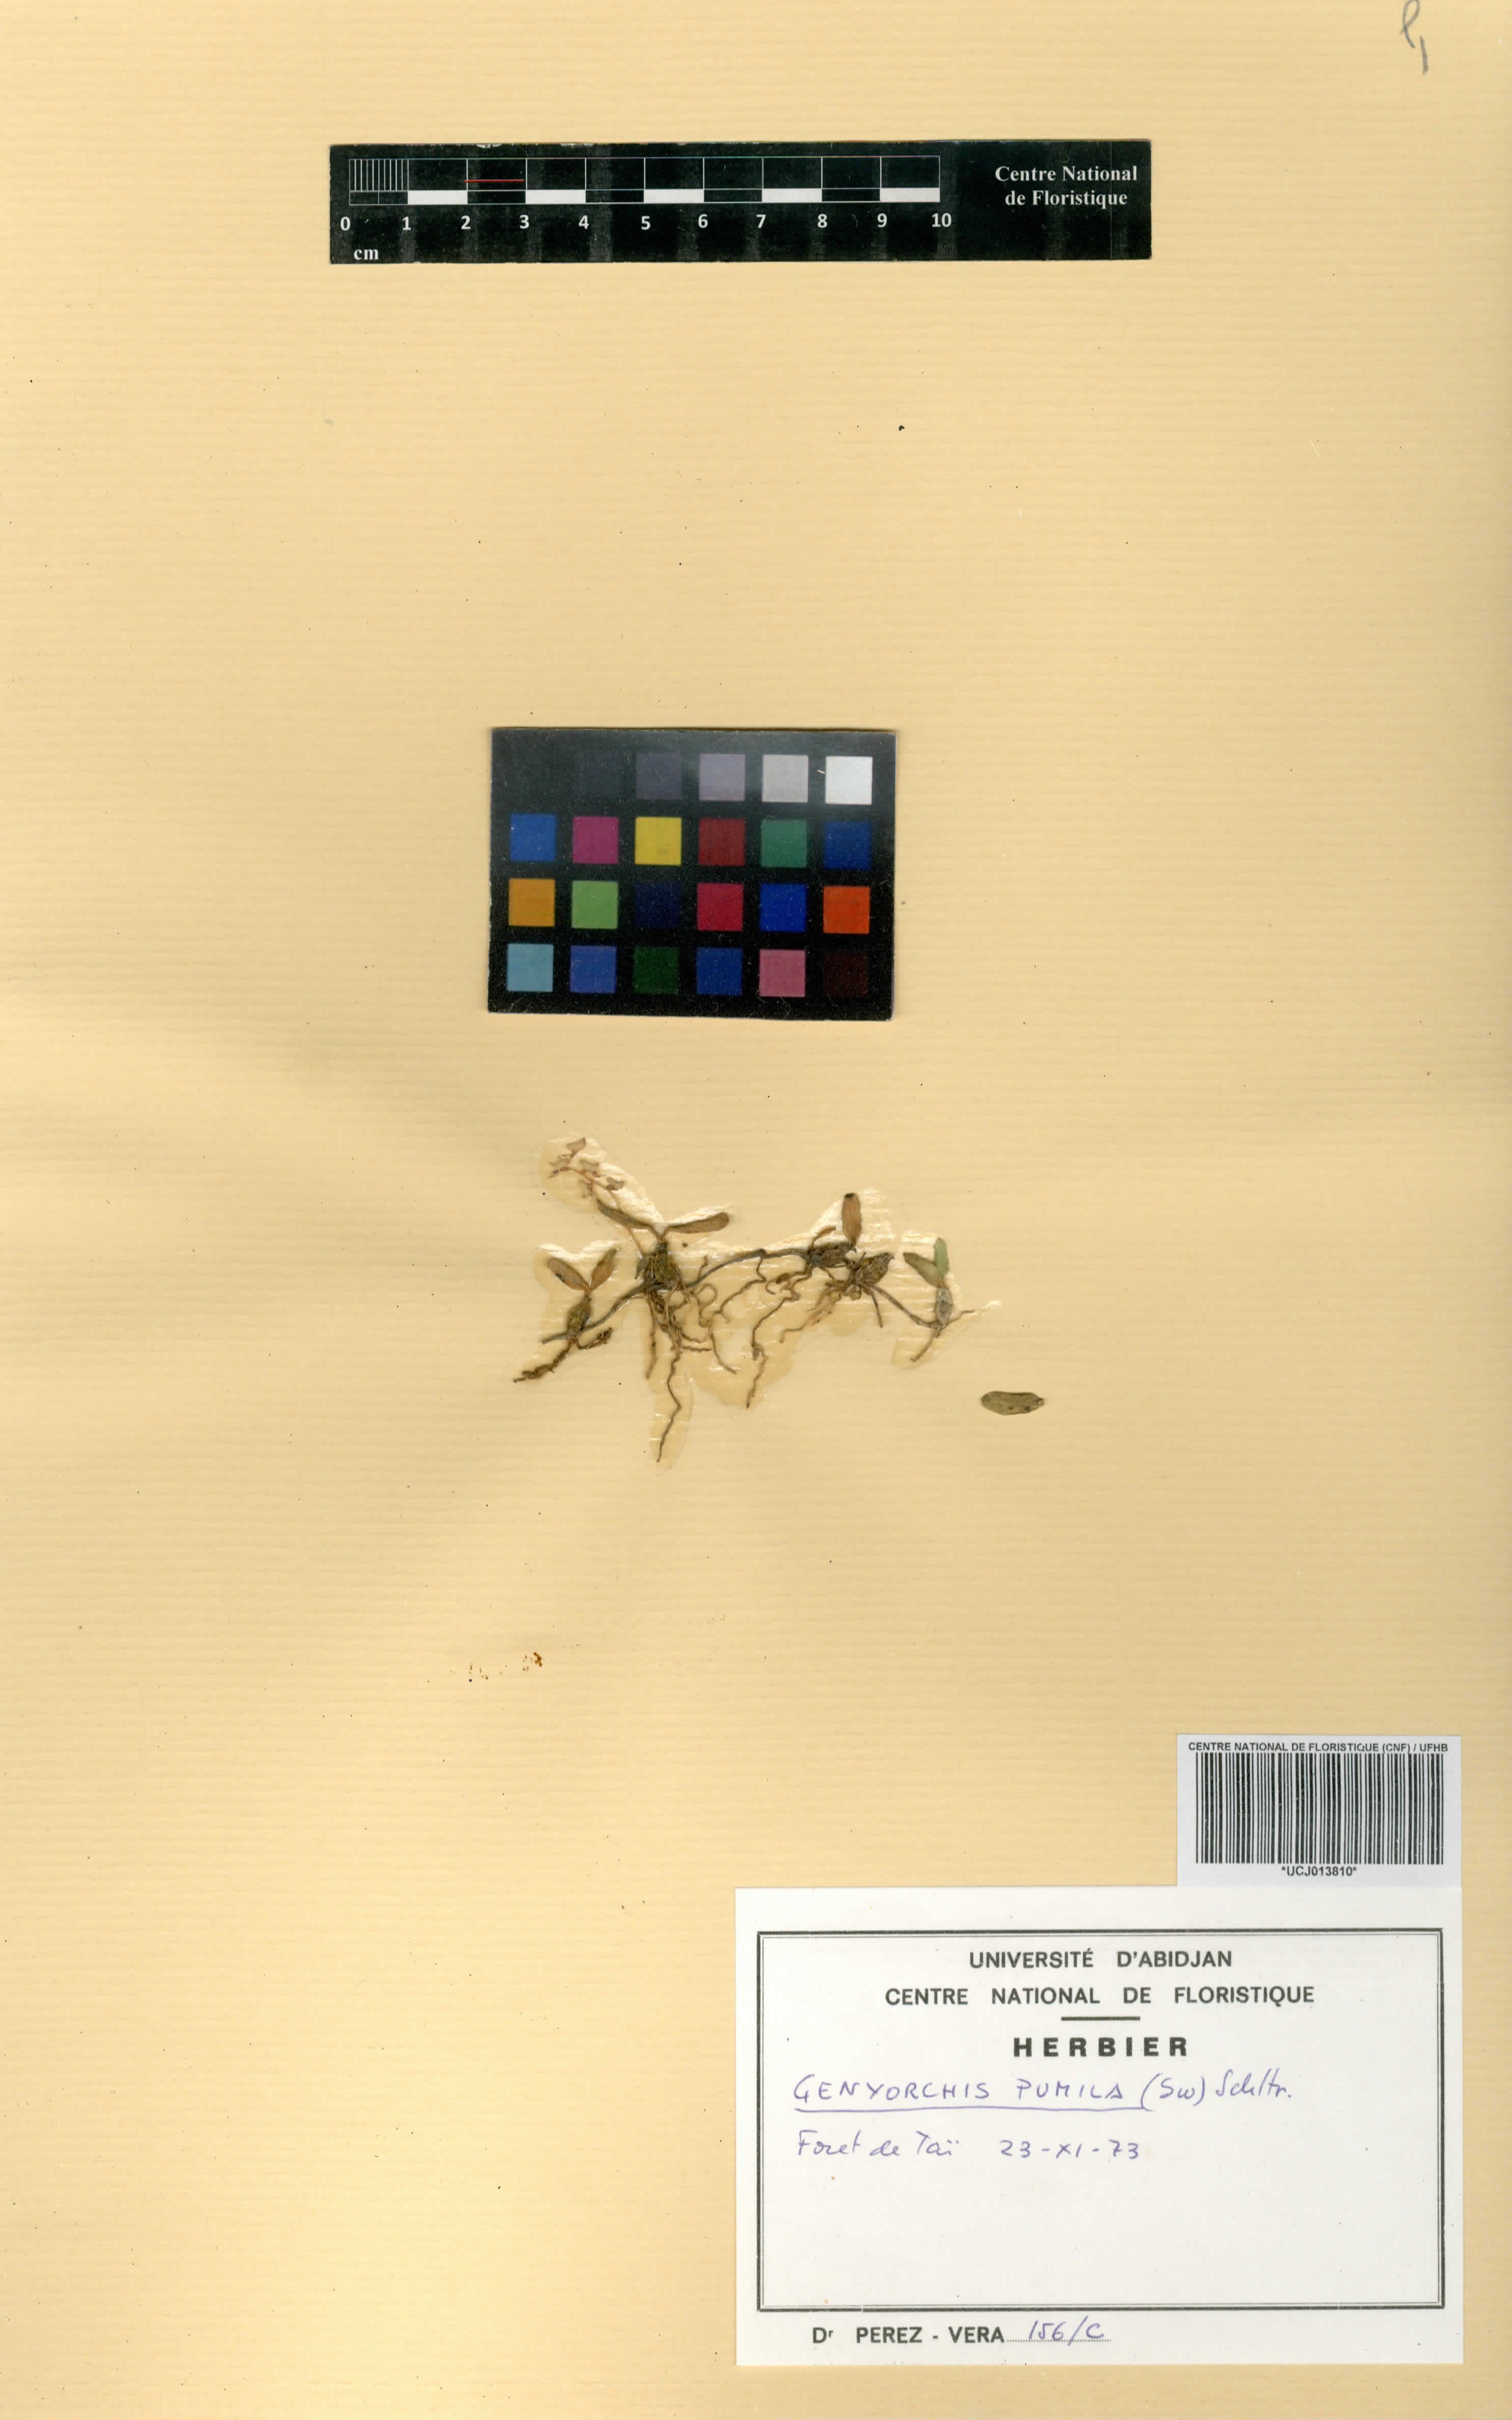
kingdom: Plantae
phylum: Tracheophyta
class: Liliopsida
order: Asparagales
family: Orchidaceae
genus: Bulbophyllum
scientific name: Bulbophyllum pumilum
